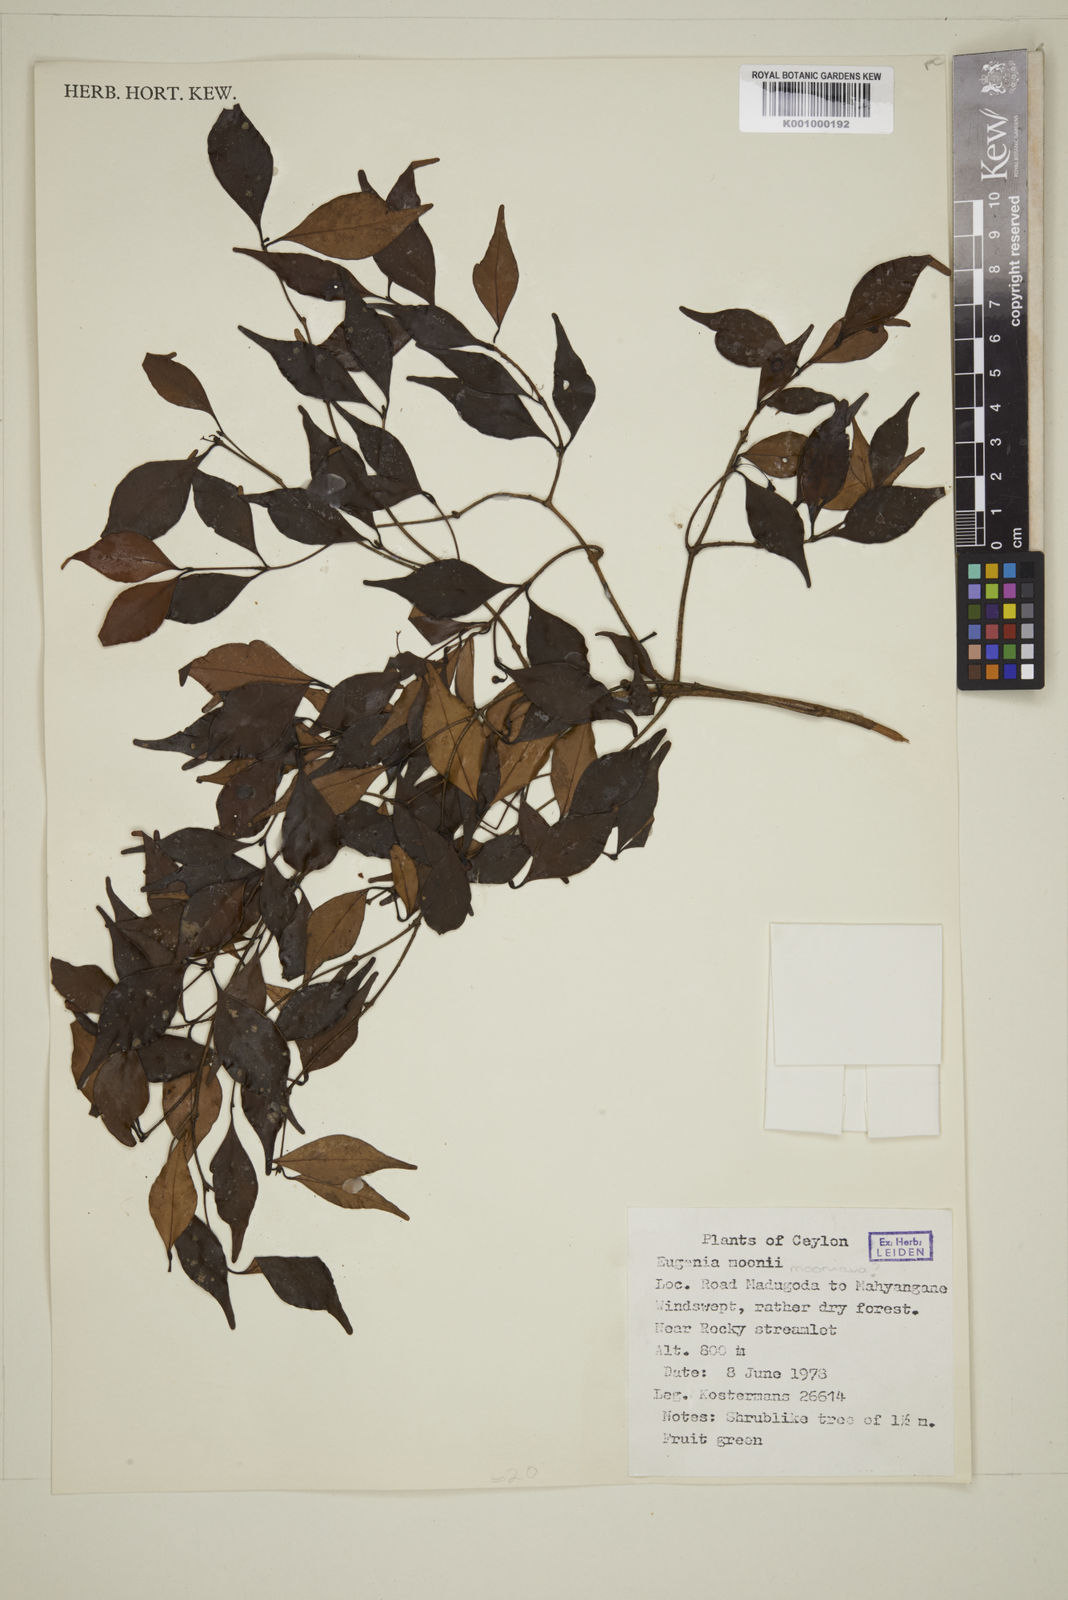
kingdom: Plantae
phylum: Tracheophyta
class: Magnoliopsida
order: Myrtales
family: Myrtaceae
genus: Eugenia
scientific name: Eugenia thwaitesii
